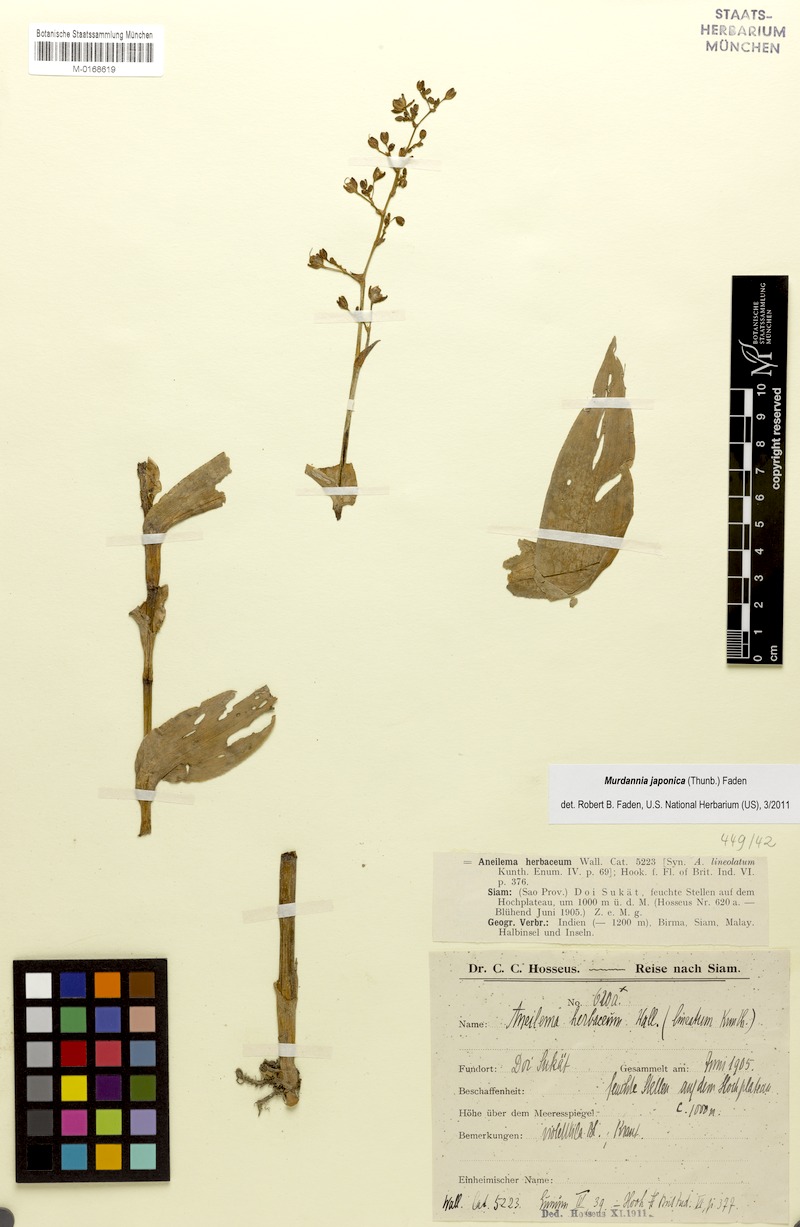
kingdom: Plantae
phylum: Tracheophyta
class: Liliopsida
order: Commelinales
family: Commelinaceae
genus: Murdannia
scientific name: Murdannia japonica
